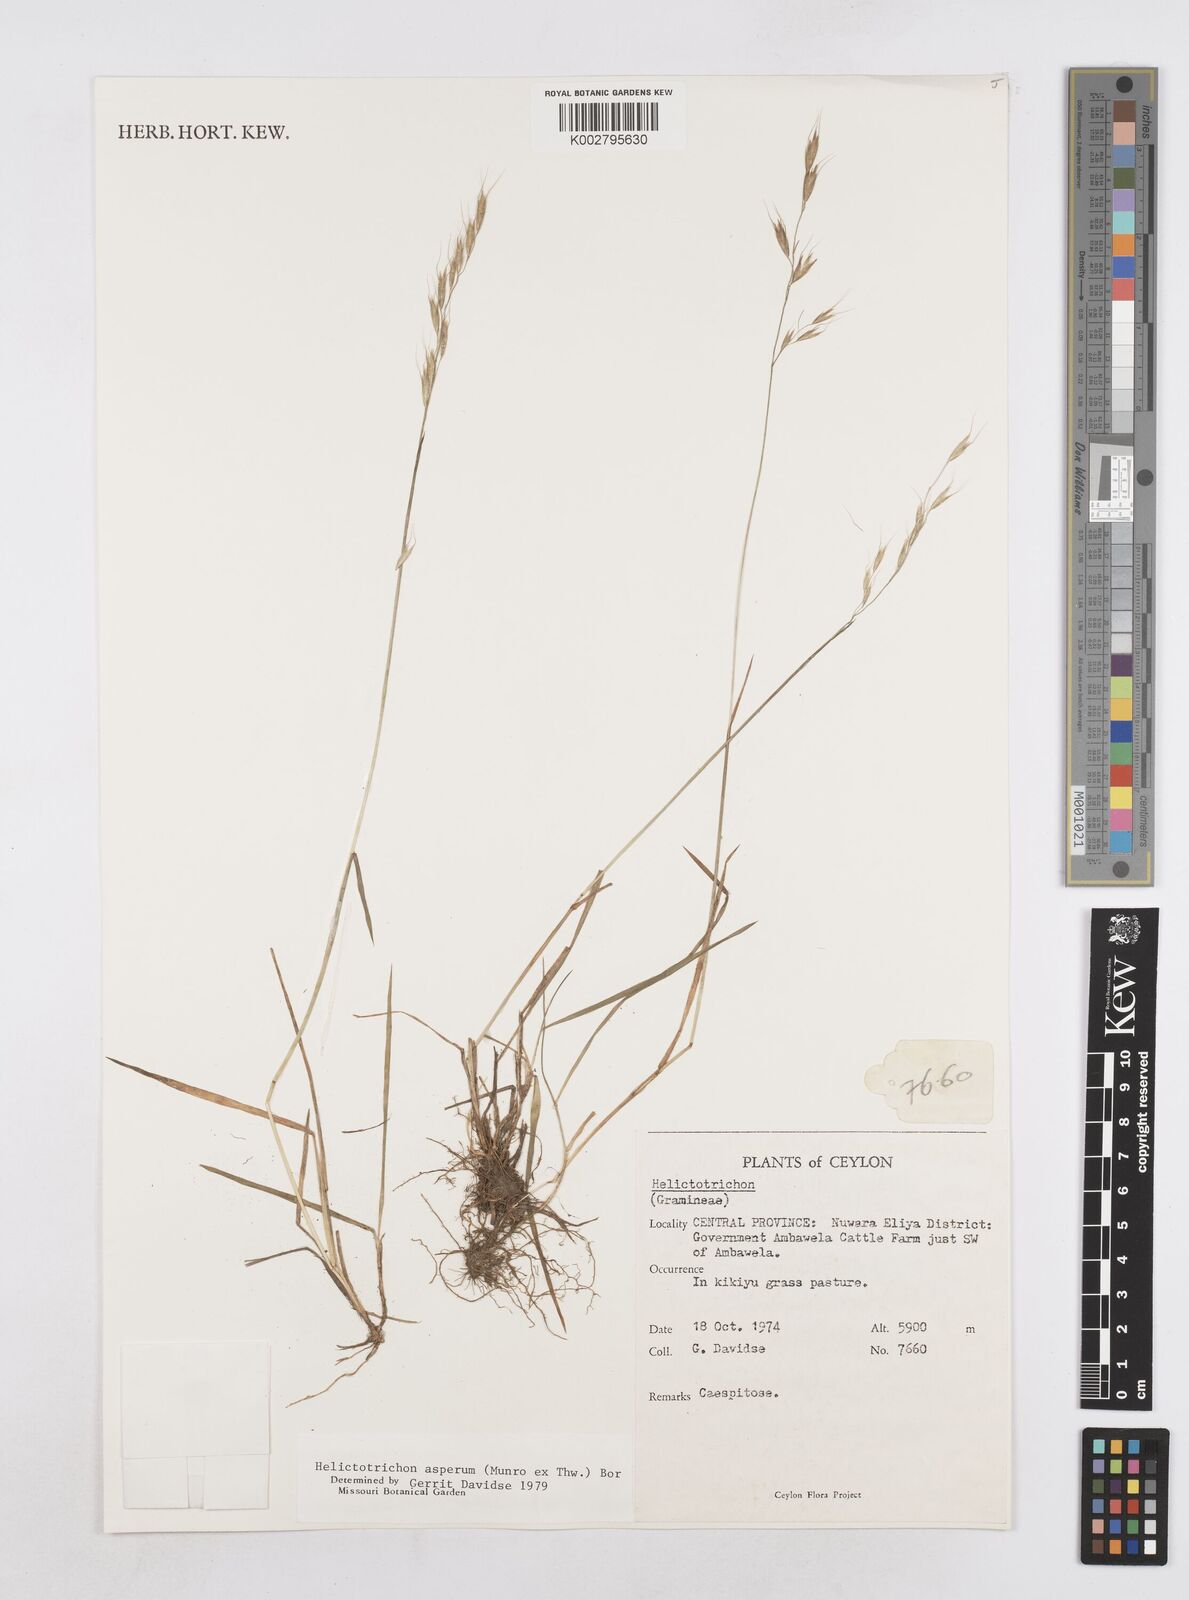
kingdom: Plantae
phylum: Tracheophyta
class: Liliopsida
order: Poales
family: Poaceae
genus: Trisetopsis
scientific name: Trisetopsis virescens
